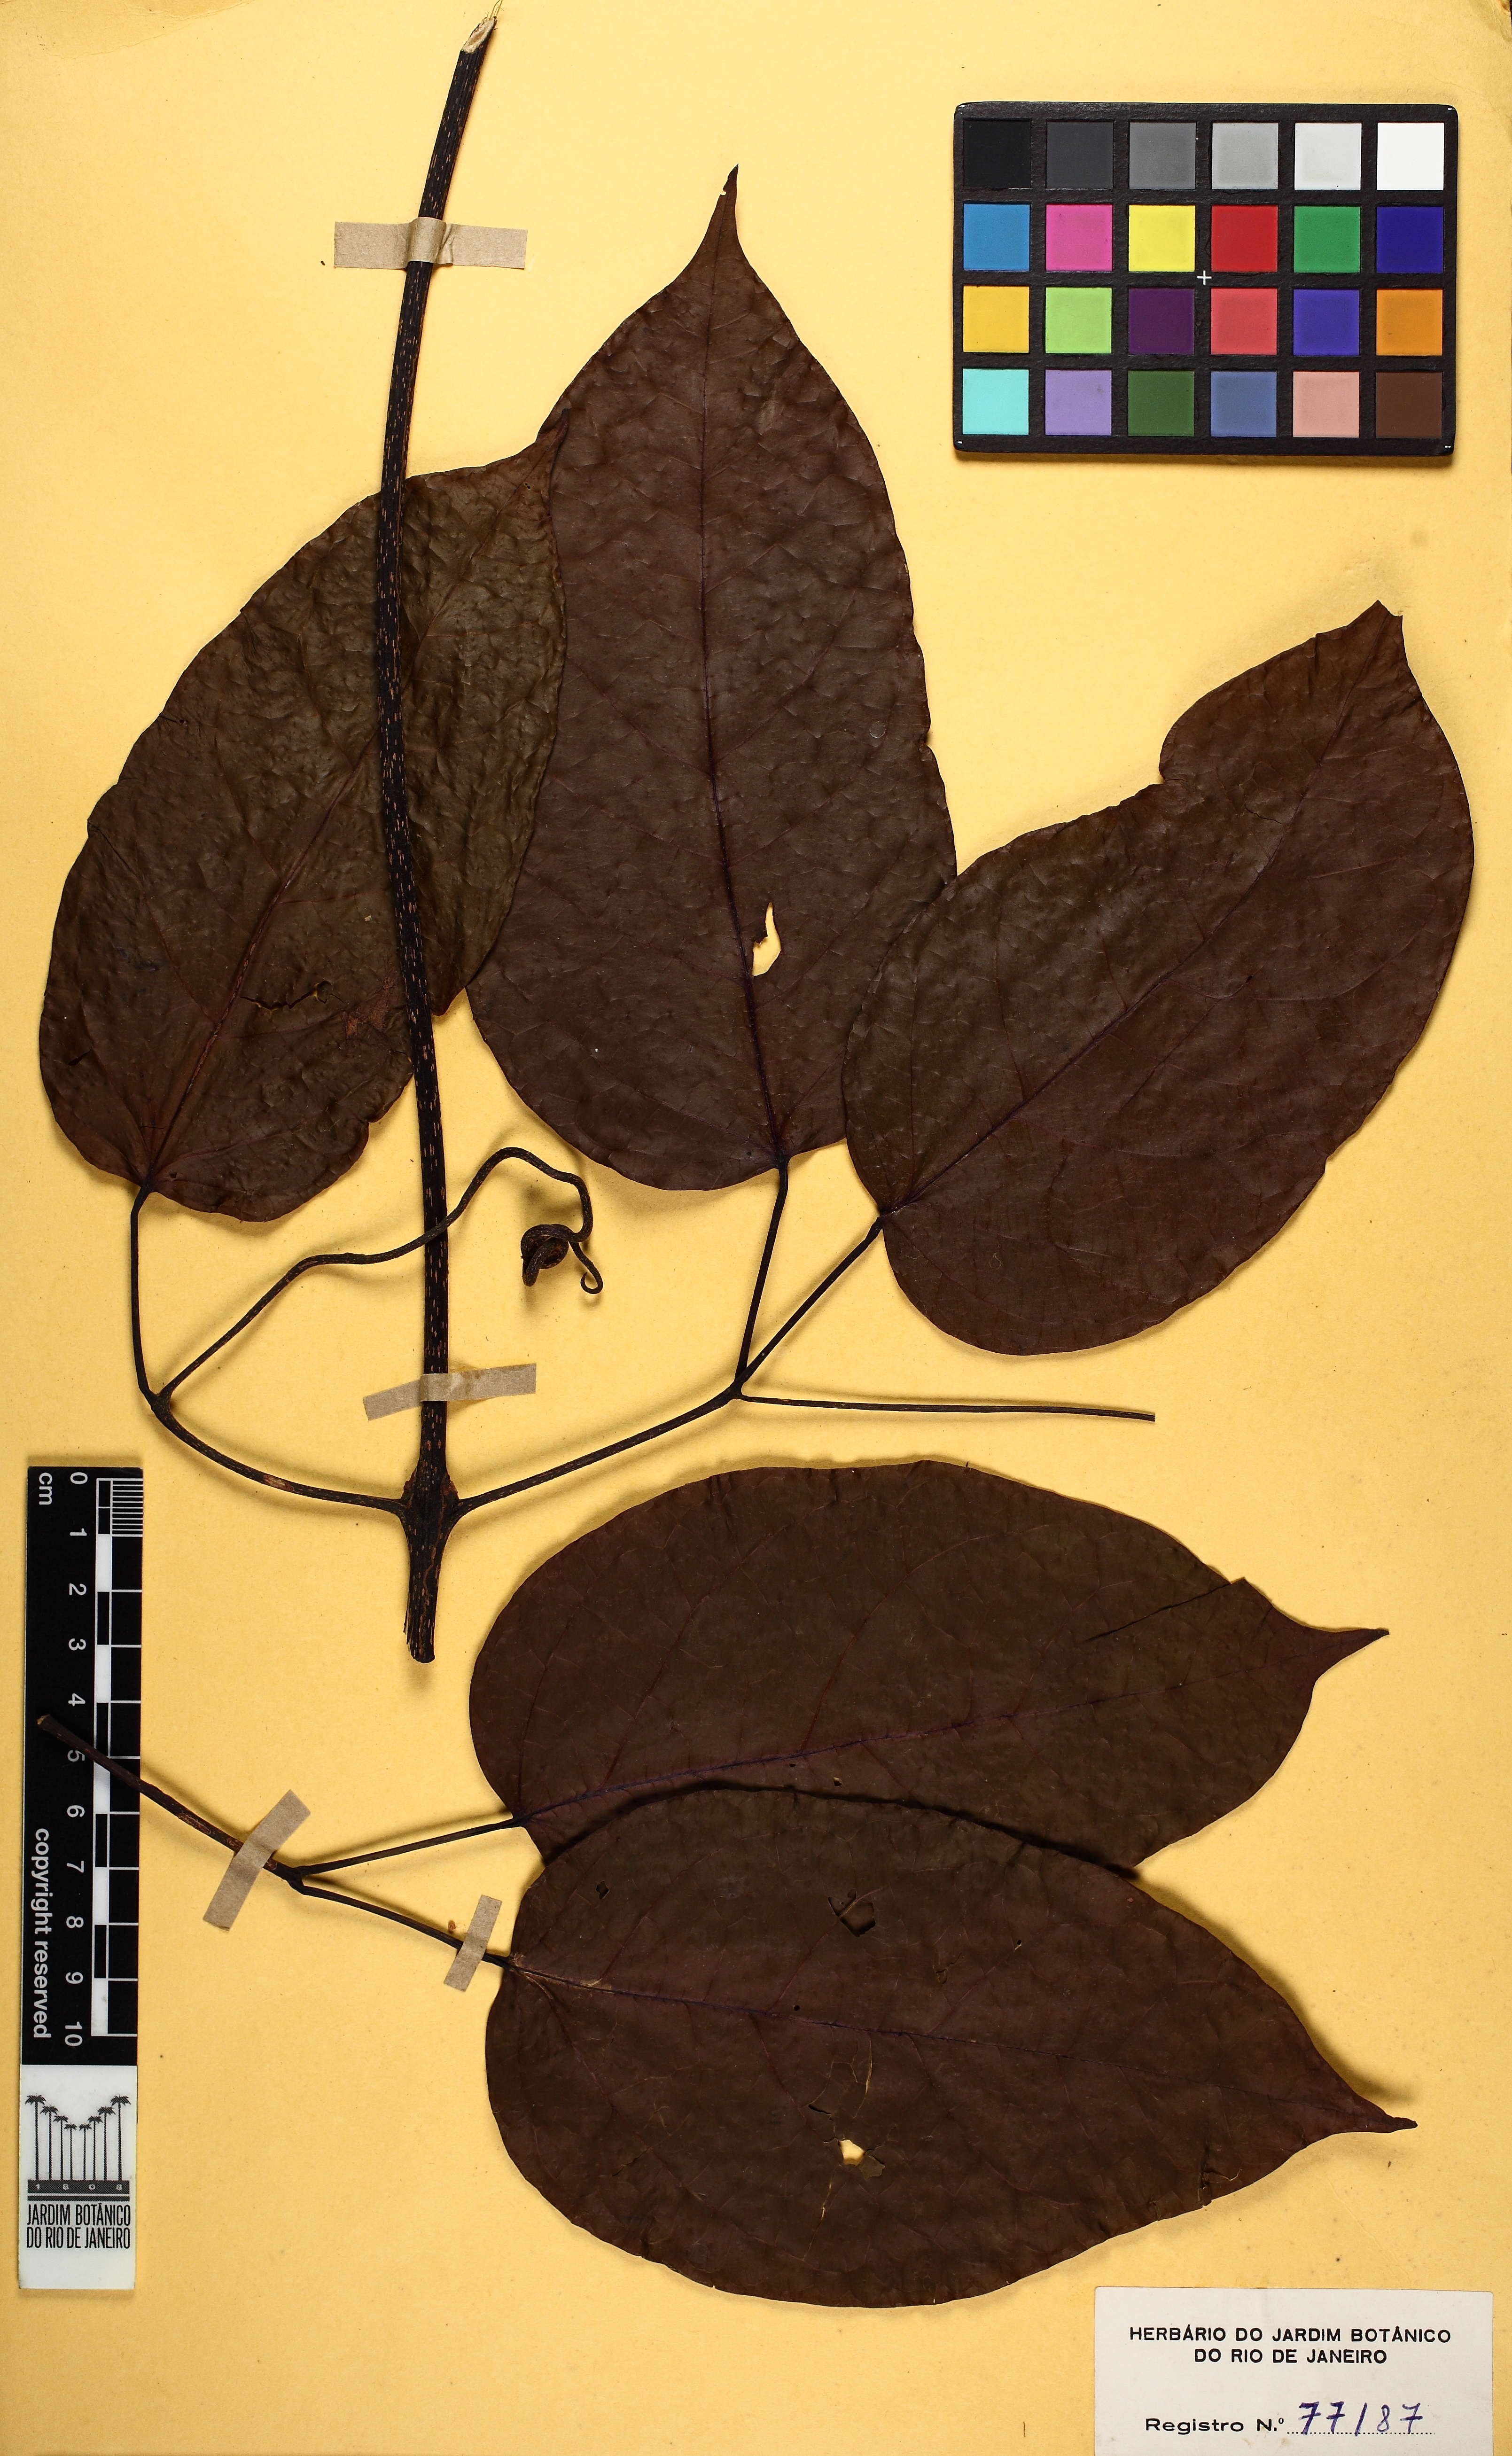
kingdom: Plantae
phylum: Tracheophyta
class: Magnoliopsida
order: Lamiales
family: Bignoniaceae
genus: Callichlamys
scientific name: Callichlamys latifolia
